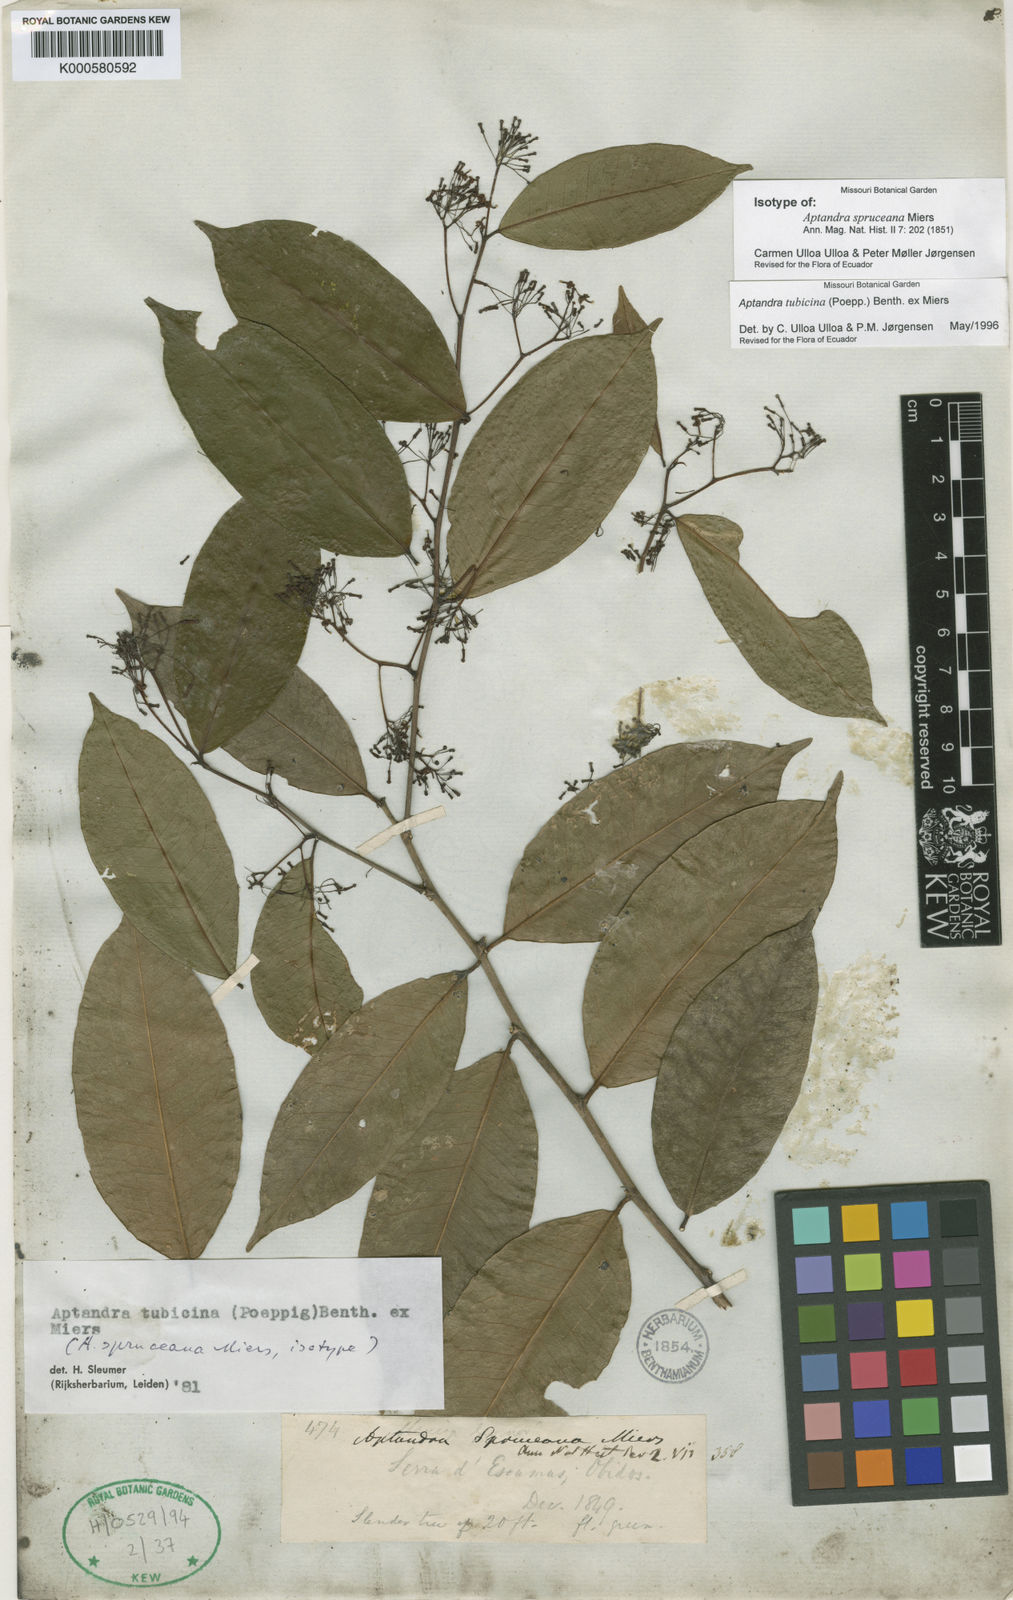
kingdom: Plantae
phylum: Tracheophyta
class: Magnoliopsida
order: Santalales
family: Aptandraceae
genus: Aptandra
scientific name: Aptandra tubicina
